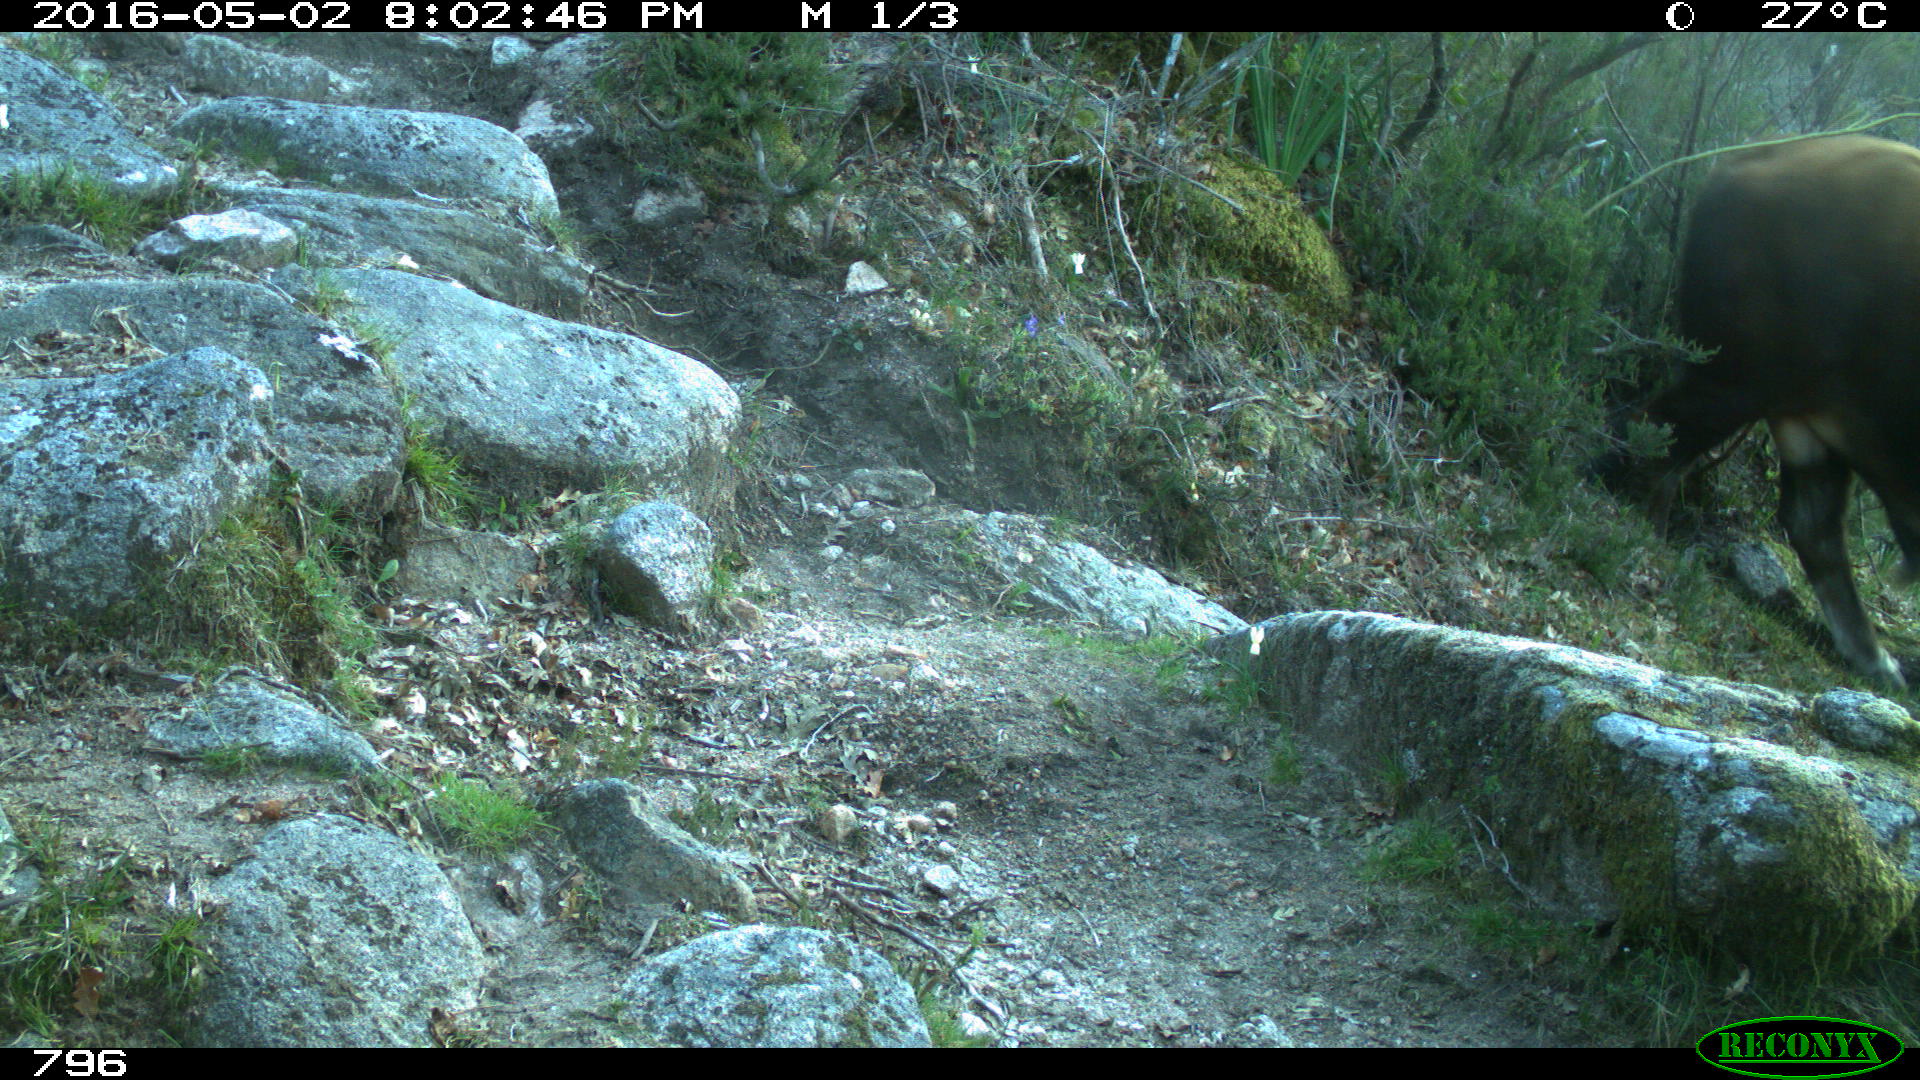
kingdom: Animalia
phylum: Chordata
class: Mammalia
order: Artiodactyla
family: Bovidae
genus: Bos
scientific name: Bos taurus
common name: Domesticated cattle
